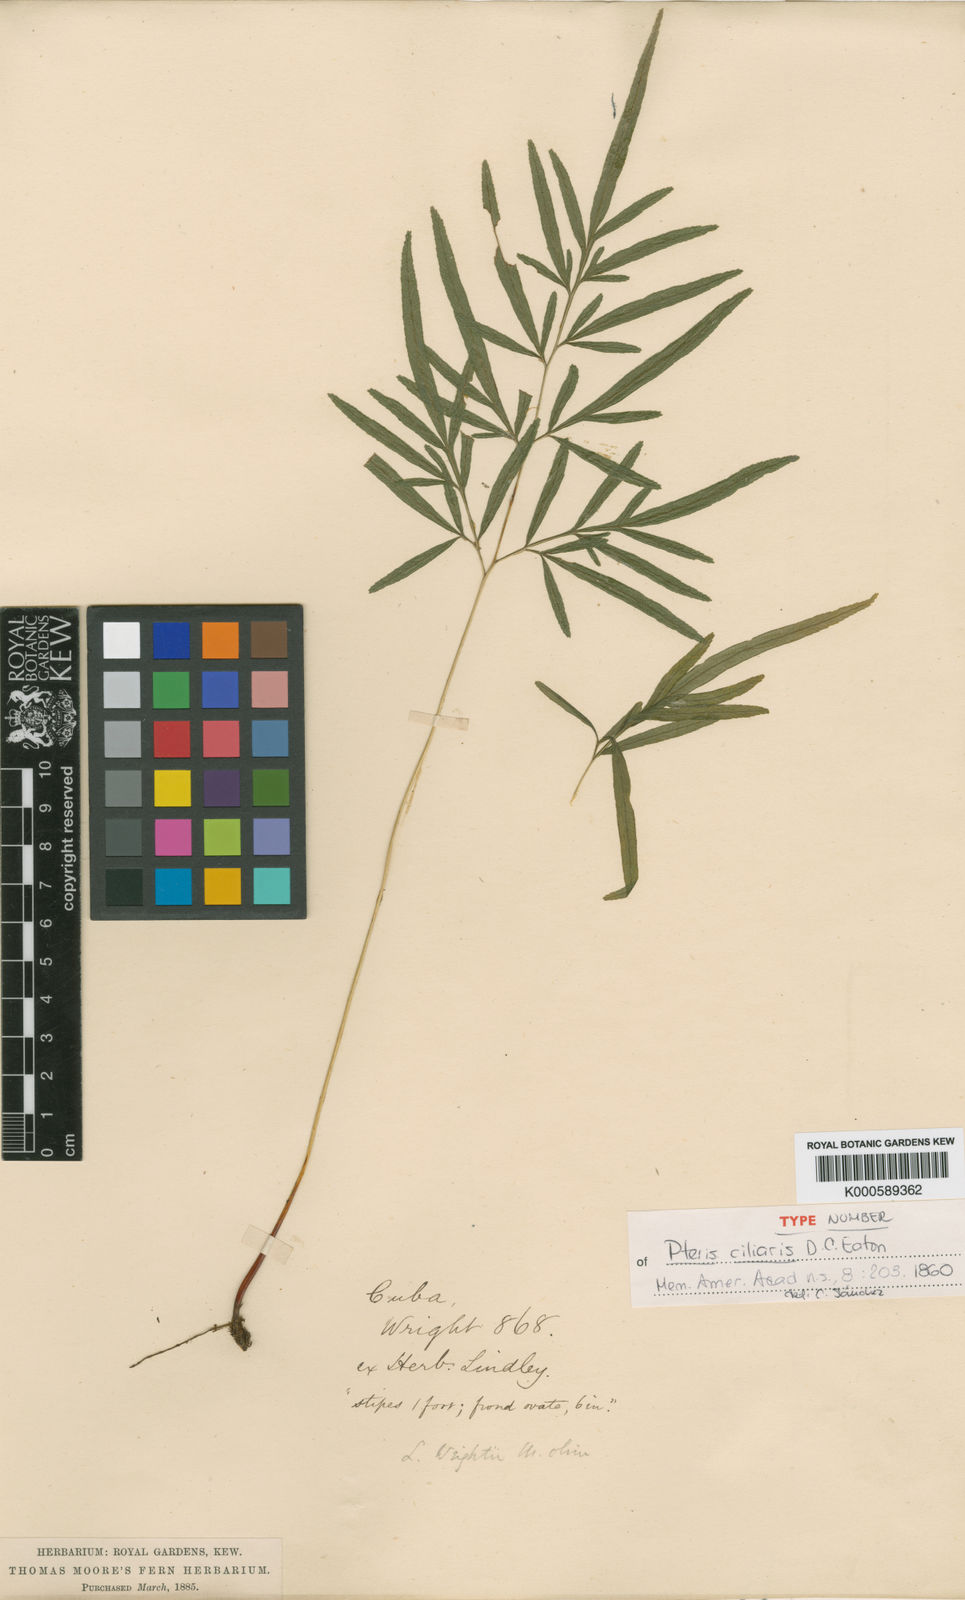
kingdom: Plantae
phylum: Tracheophyta
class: Polypodiopsida
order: Polypodiales
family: Pteridaceae
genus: Pteris
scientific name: Pteris ciliaris
